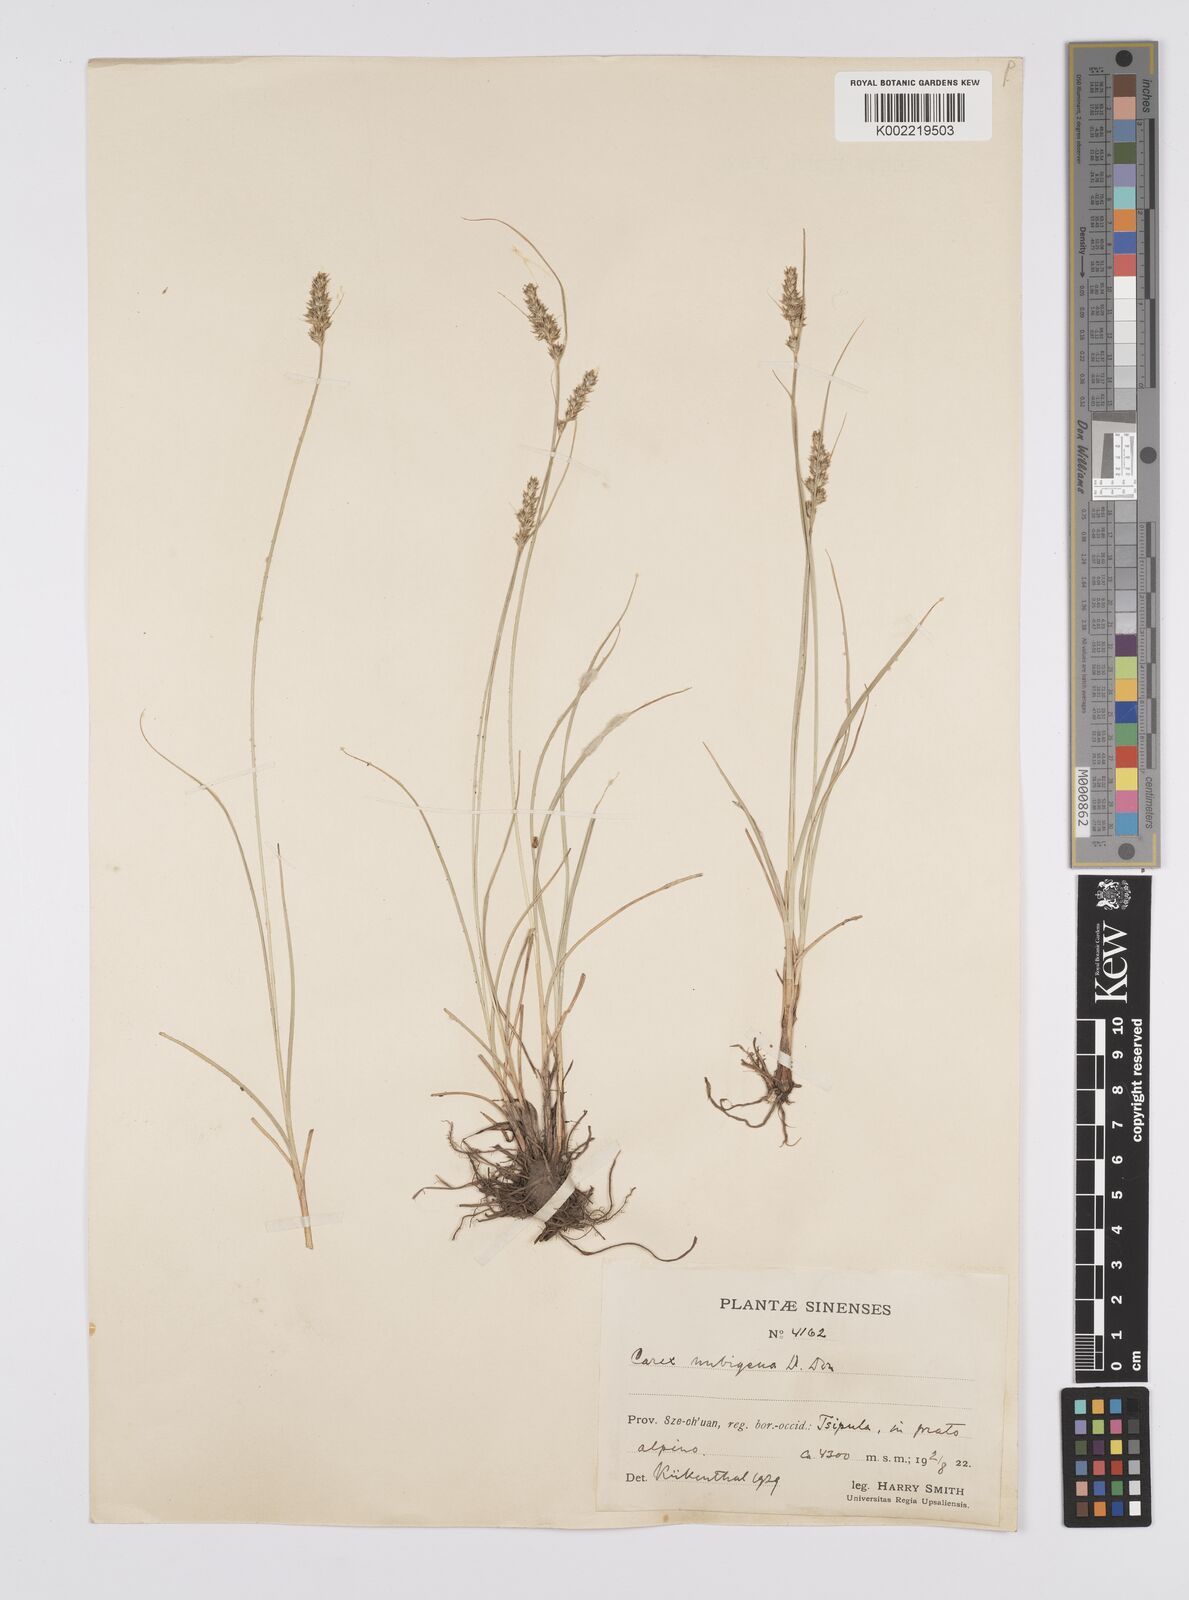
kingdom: Plantae
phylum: Tracheophyta
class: Liliopsida
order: Poales
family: Cyperaceae
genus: Carex
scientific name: Carex nubigena
